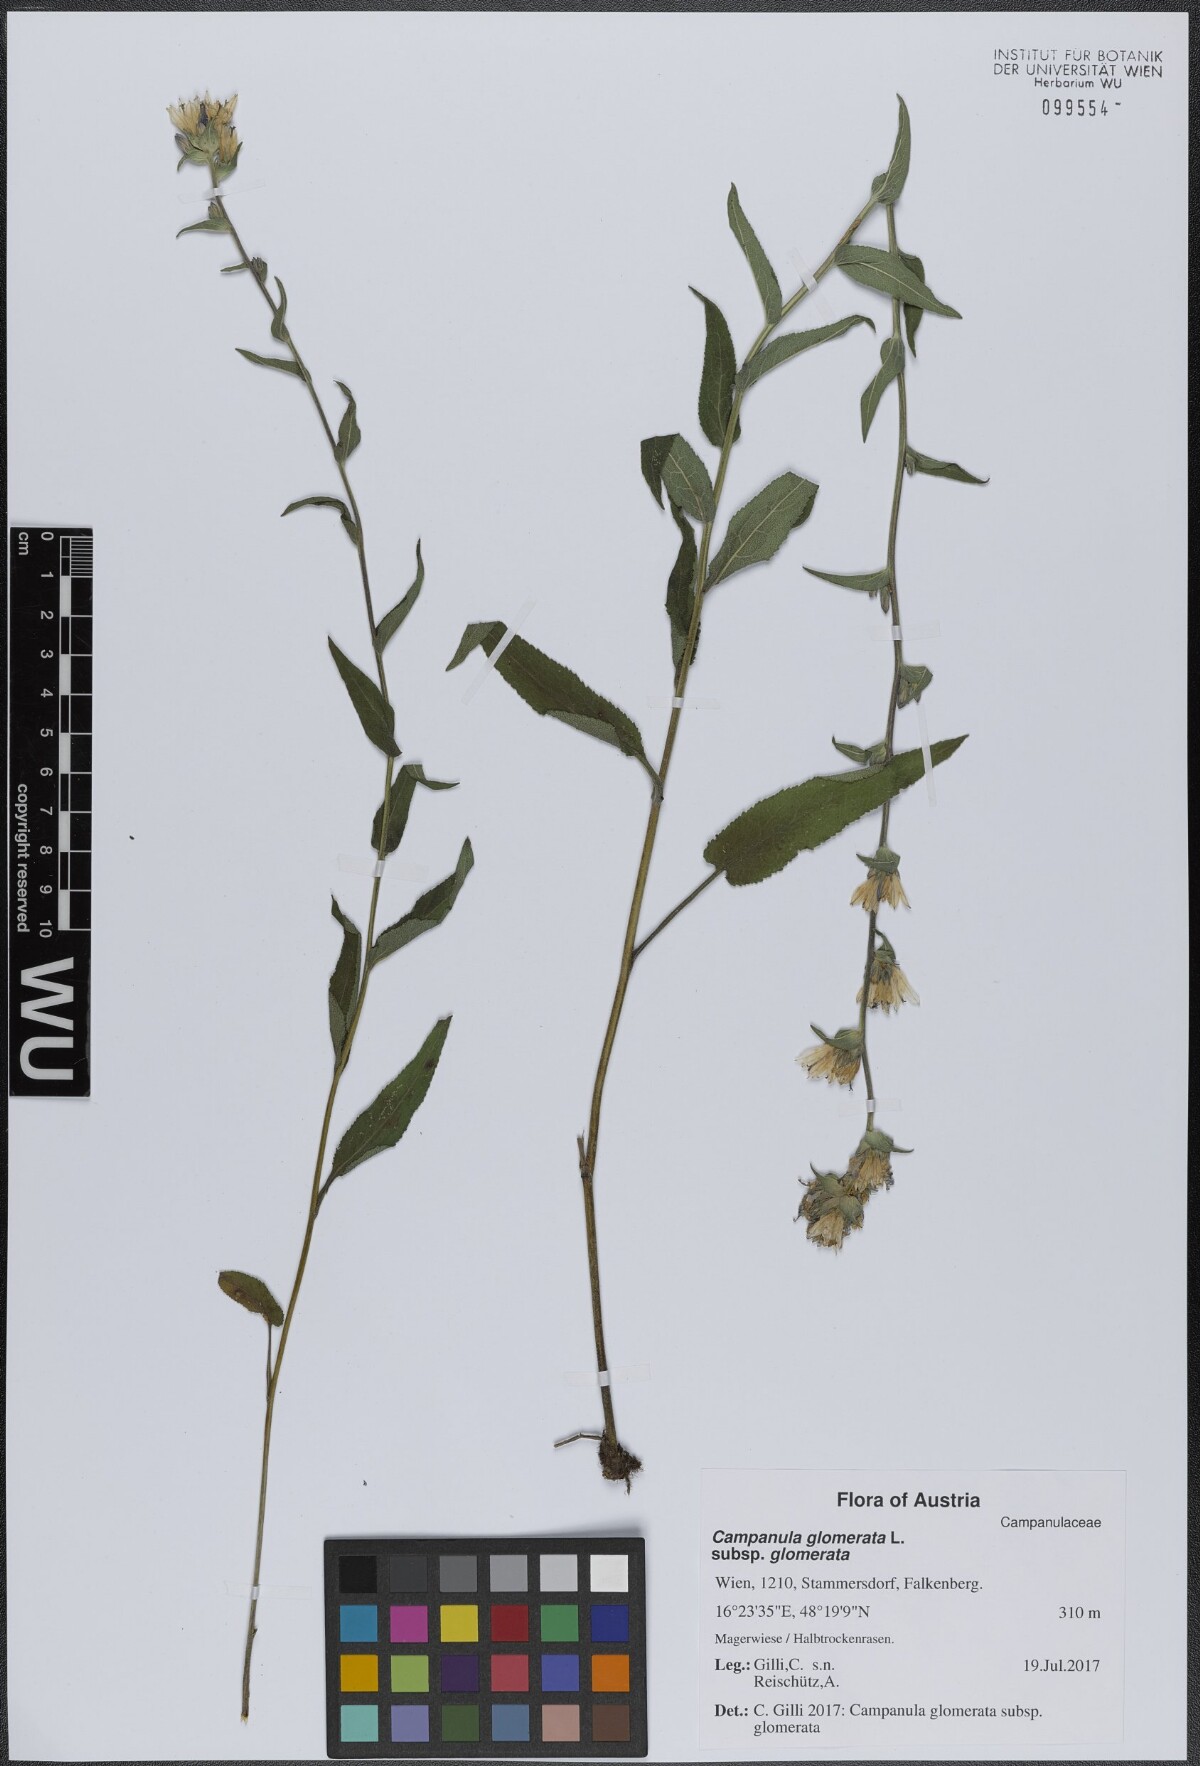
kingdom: Plantae
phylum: Tracheophyta
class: Magnoliopsida
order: Asterales
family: Campanulaceae
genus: Campanula
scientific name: Campanula glomerata
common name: Clustered bellflower
